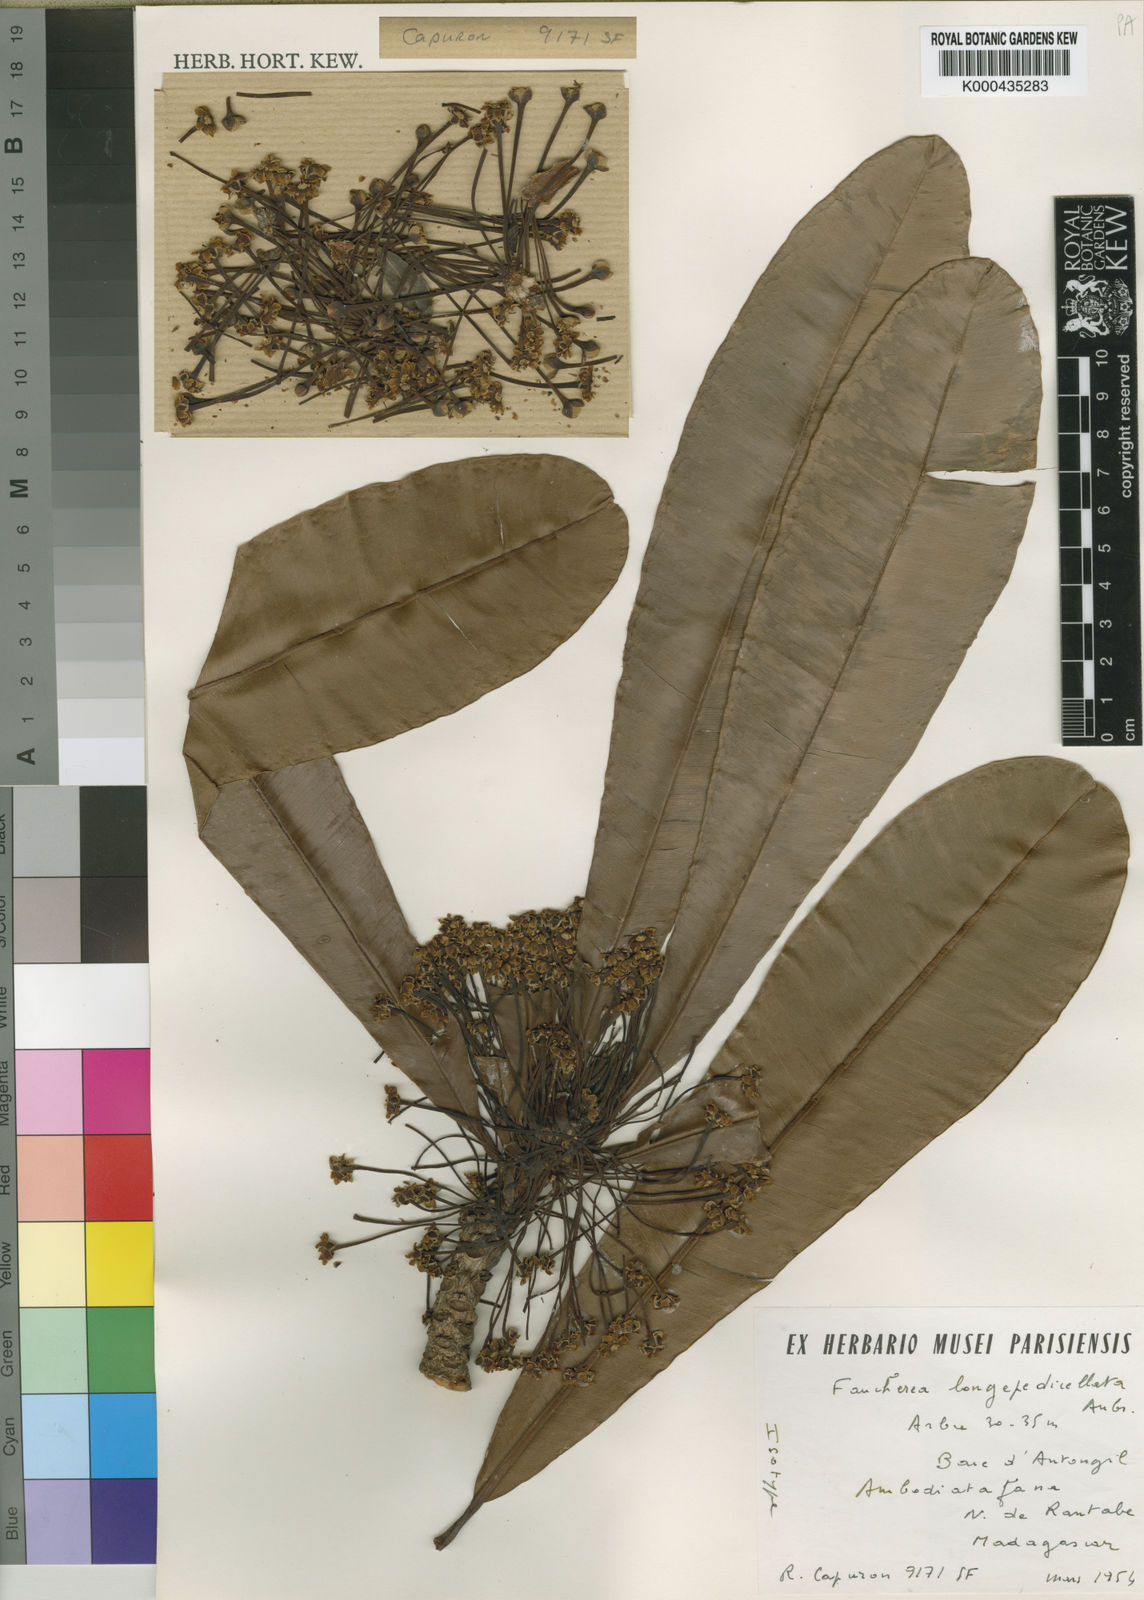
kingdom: Plantae
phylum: Tracheophyta
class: Magnoliopsida
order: Ericales
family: Sapotaceae
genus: Faucherea
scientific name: Faucherea longepedicellata
